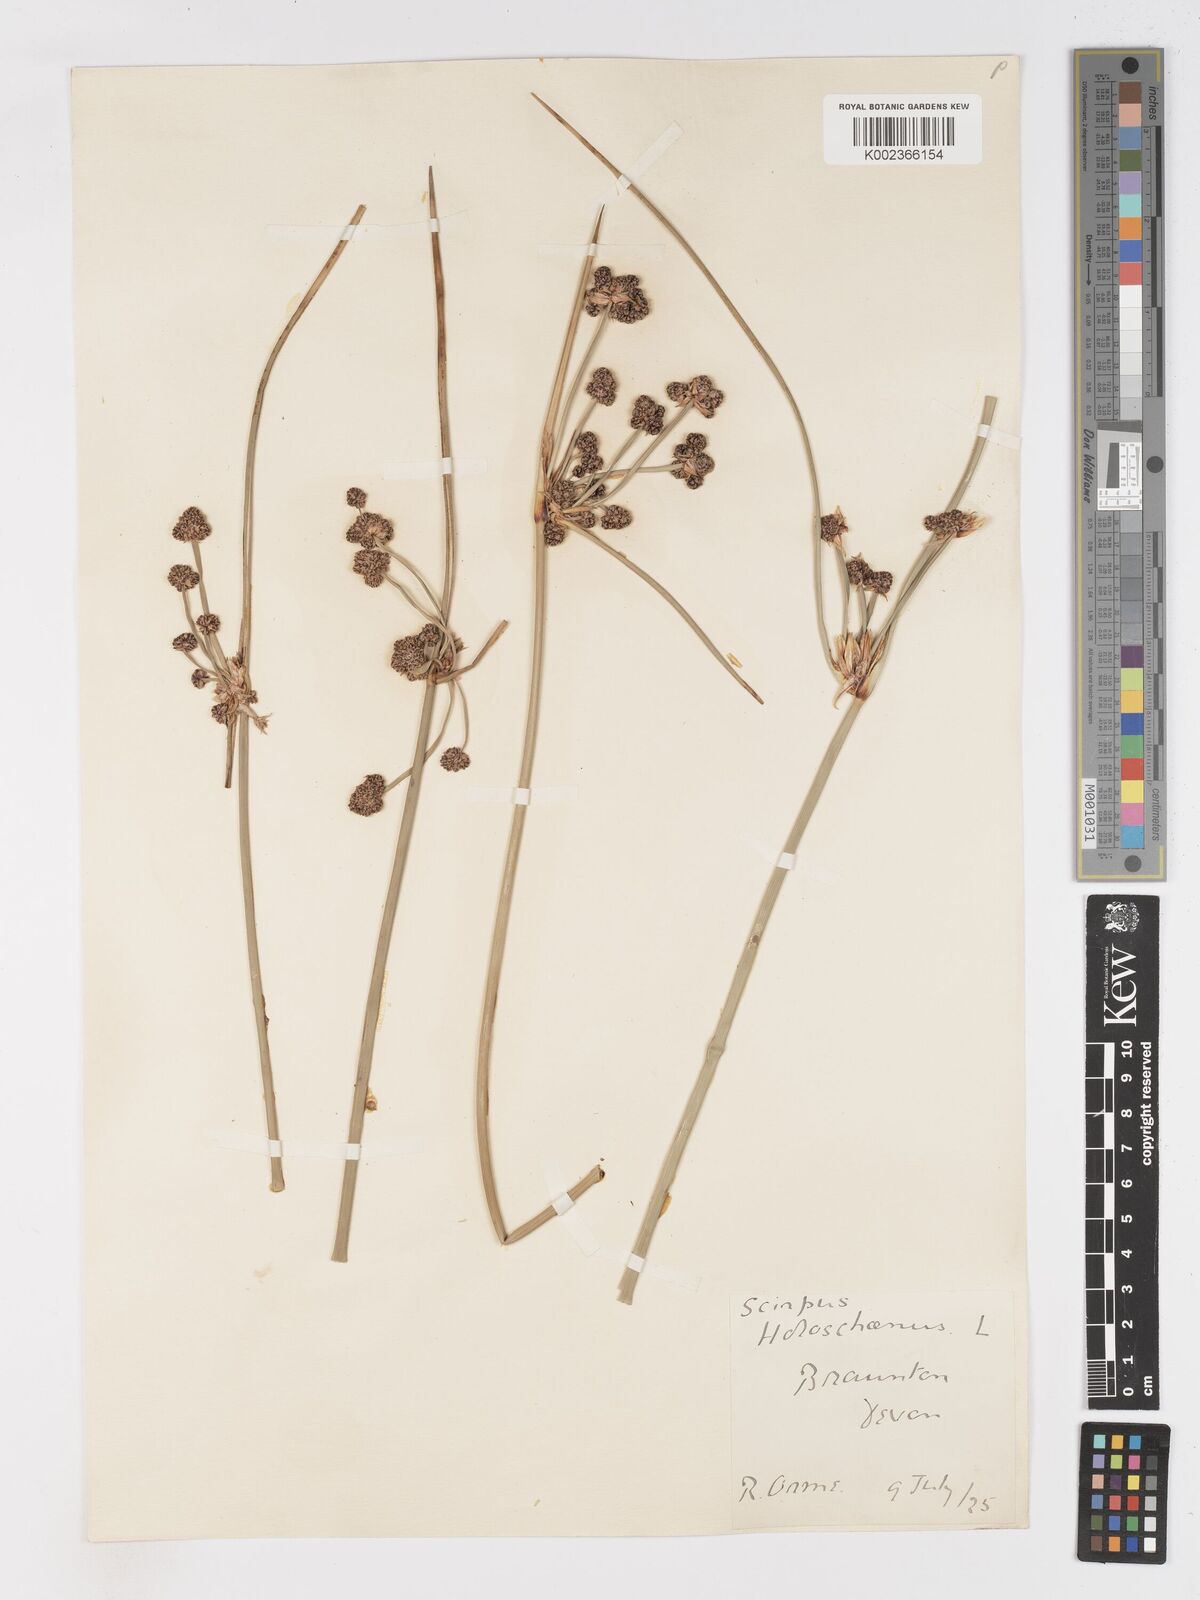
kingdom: Plantae
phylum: Tracheophyta
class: Liliopsida
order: Poales
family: Cyperaceae
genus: Scirpoides
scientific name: Scirpoides holoschoenus
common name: Round-headed club-rush
